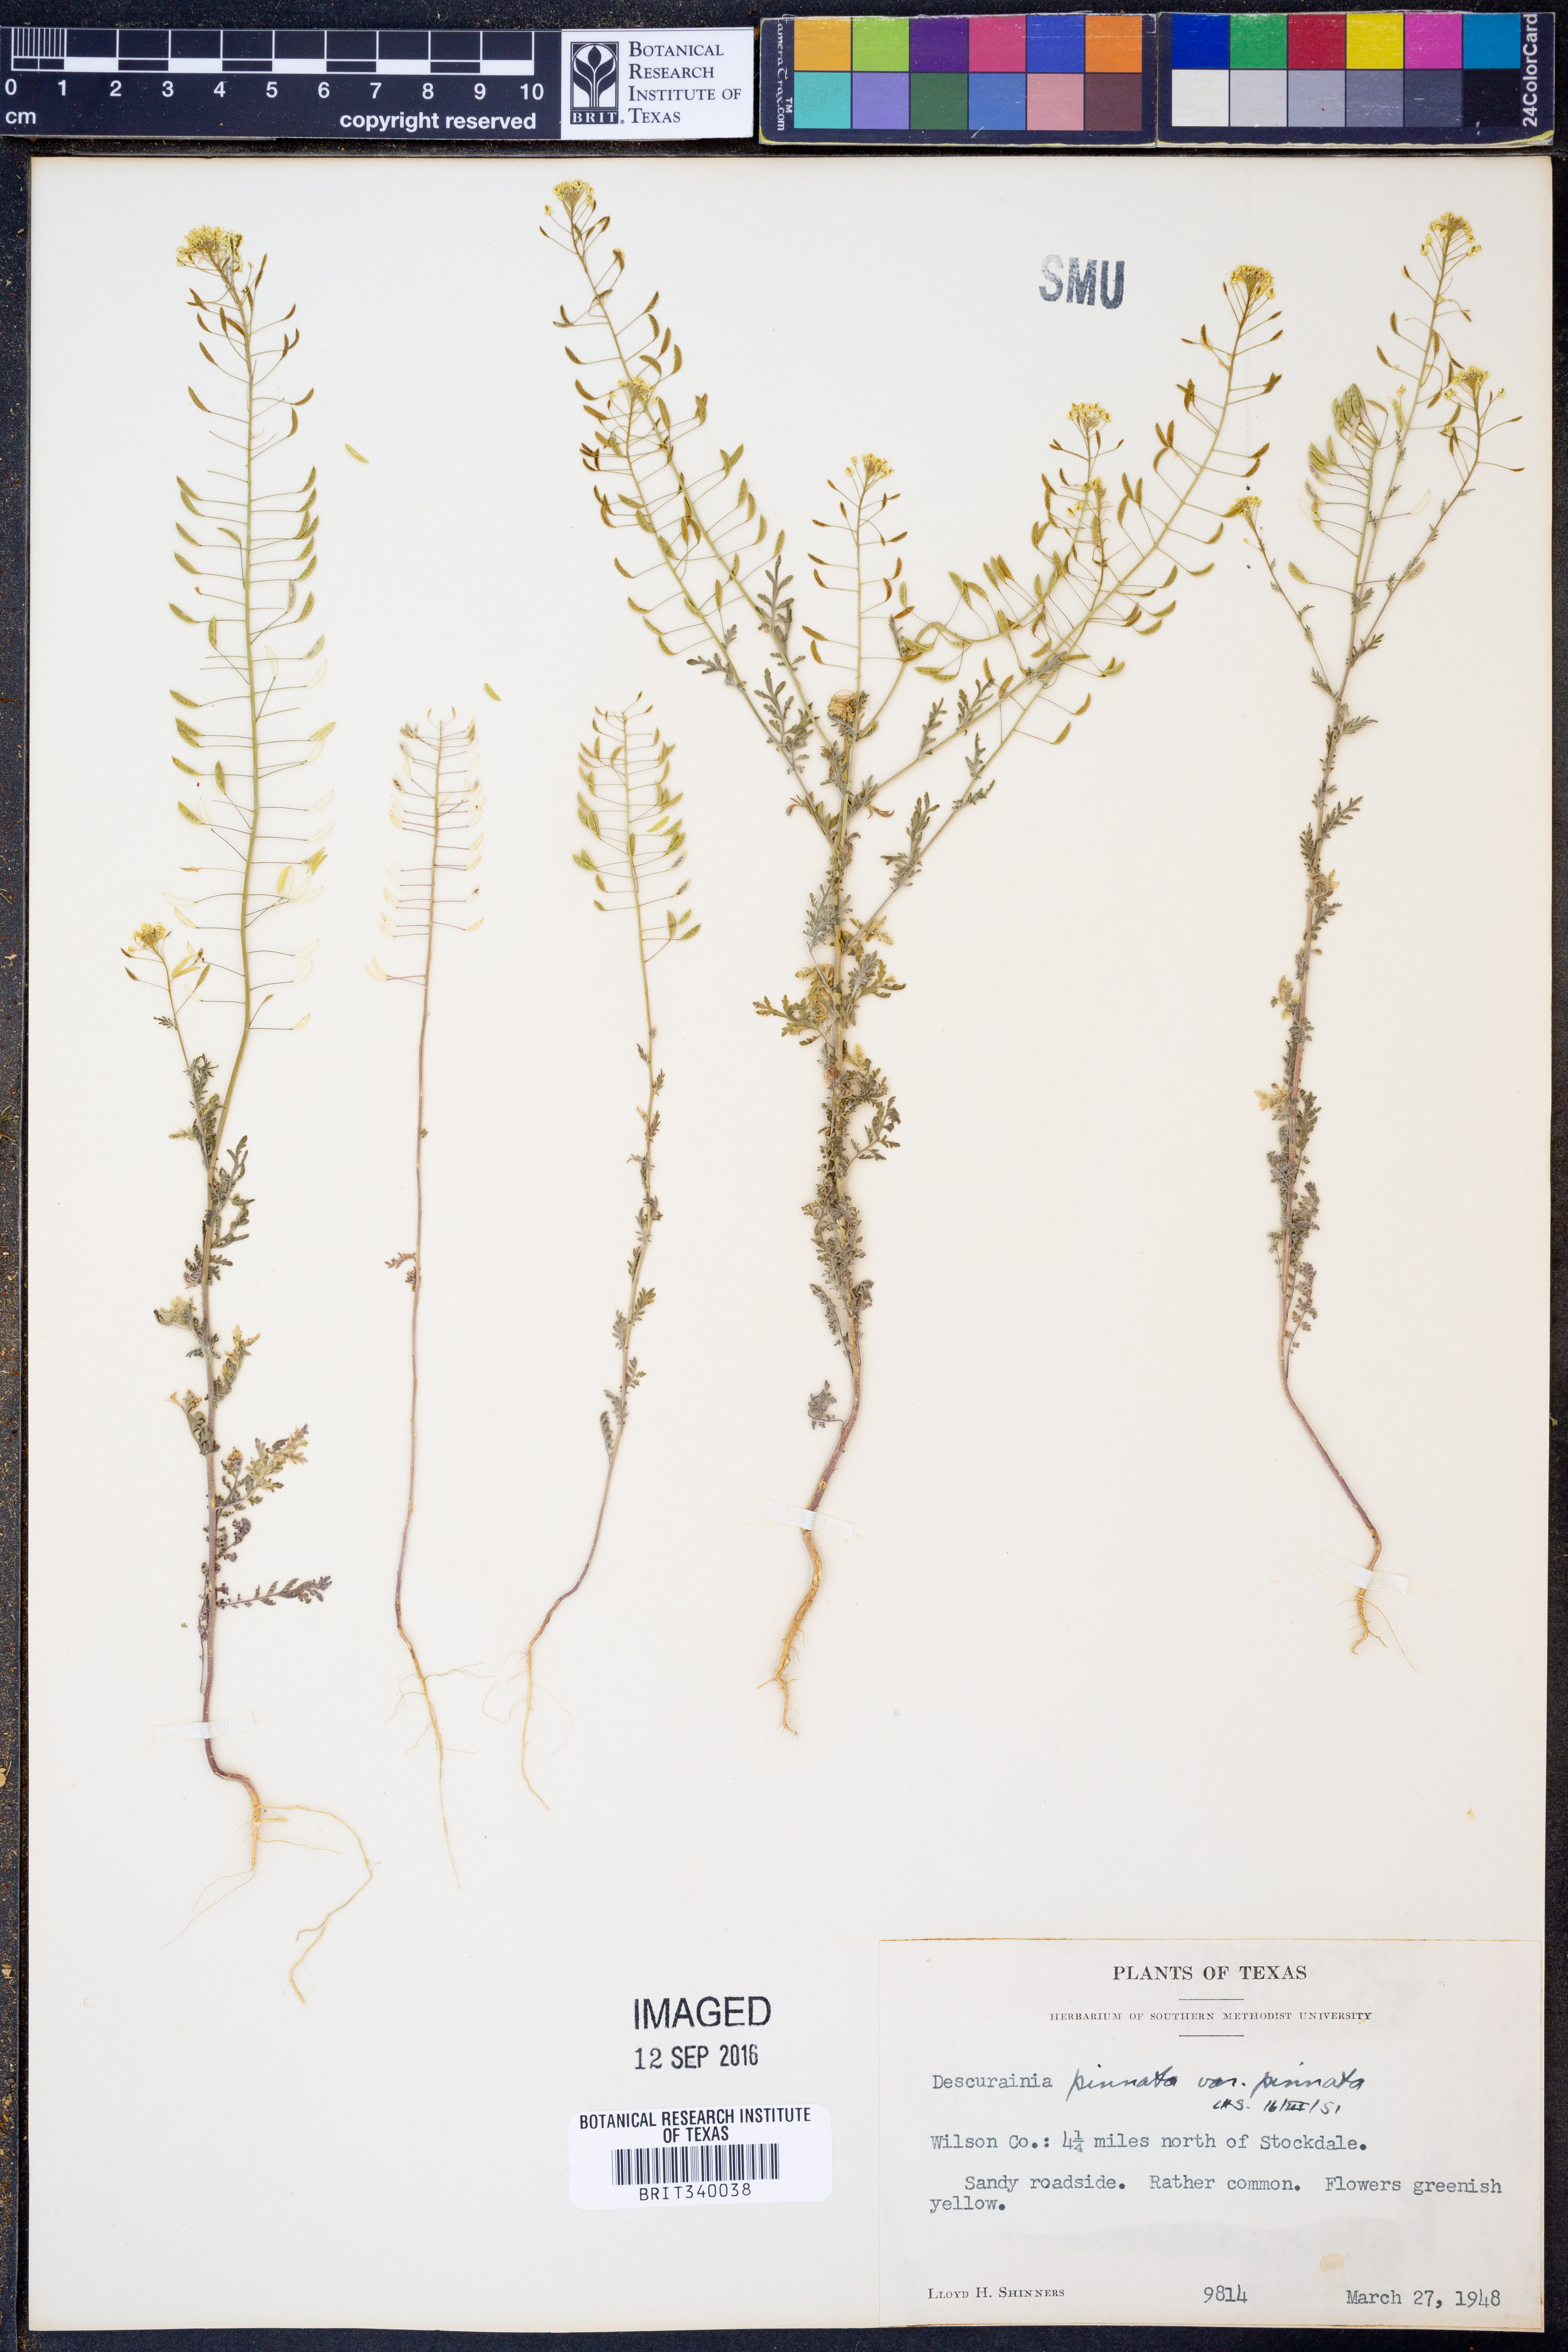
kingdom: Plantae
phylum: Tracheophyta
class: Magnoliopsida
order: Brassicales
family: Brassicaceae
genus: Descurainia
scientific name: Descurainia pinnata
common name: Western tansy mustard
